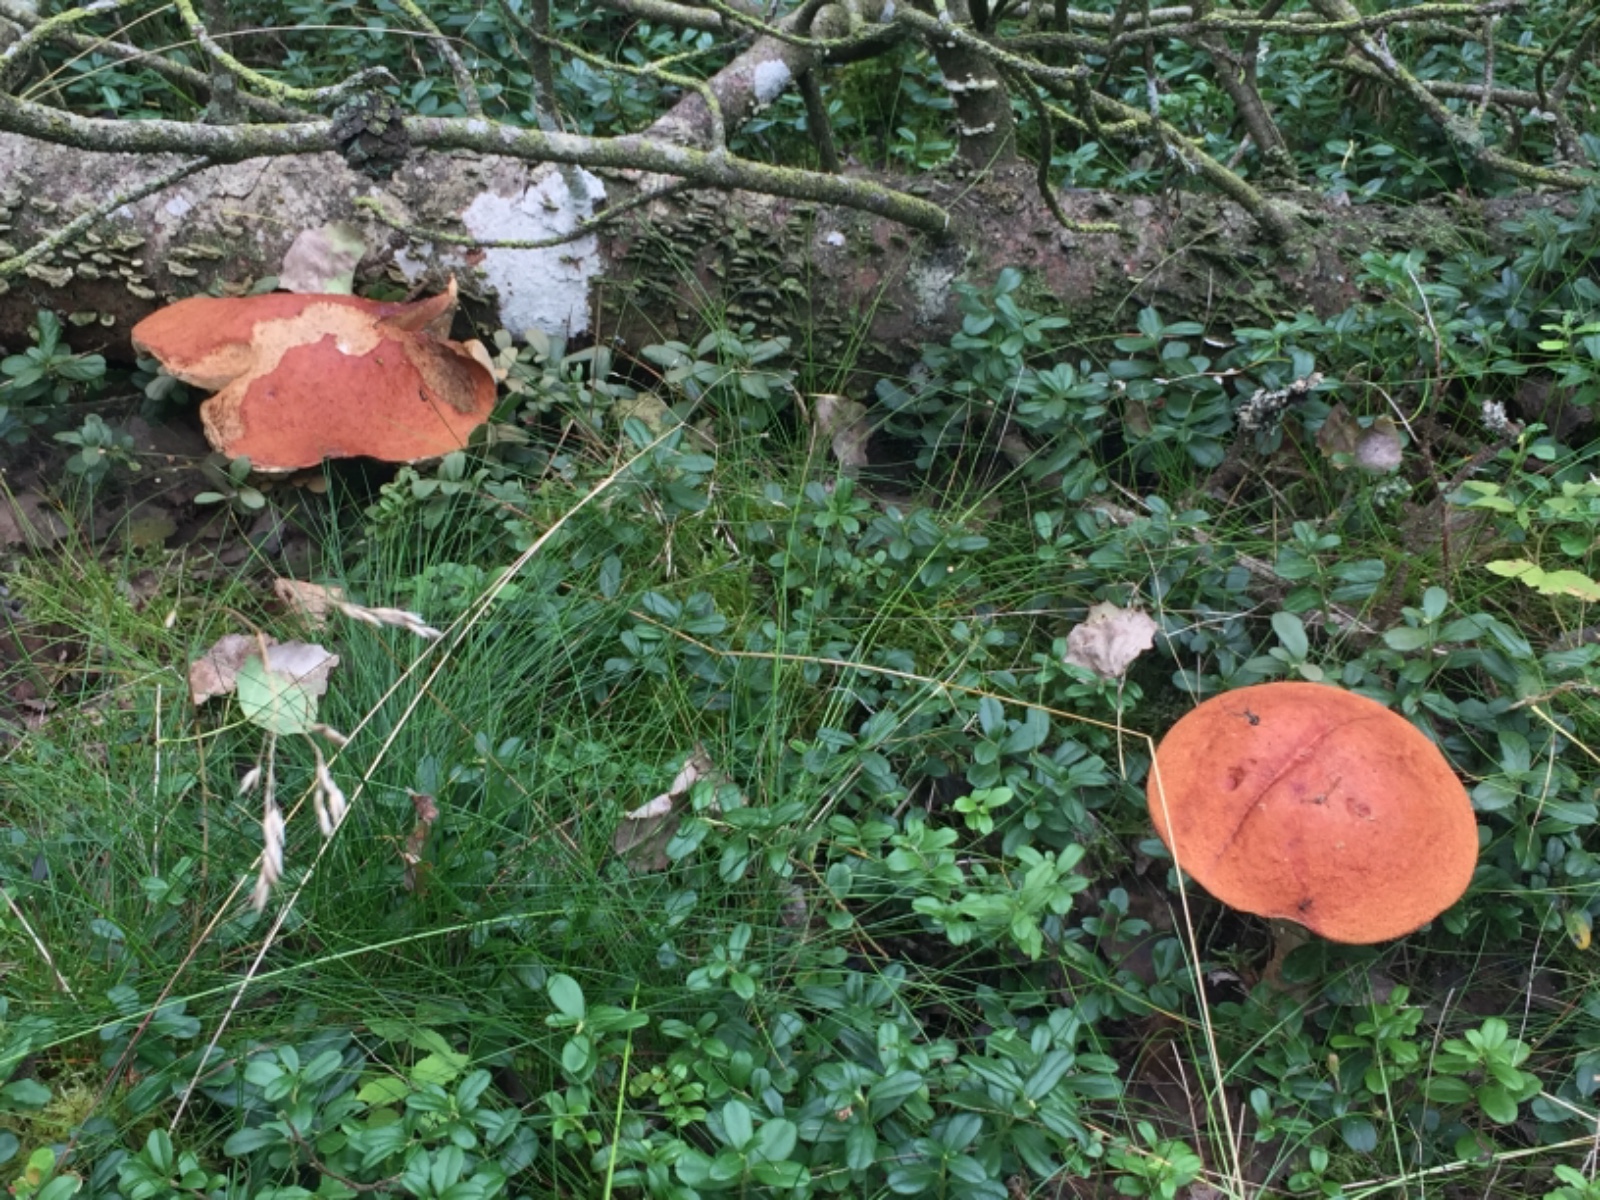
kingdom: Fungi
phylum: Basidiomycota
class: Agaricomycetes
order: Boletales
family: Boletaceae
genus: Leccinum
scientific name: Leccinum albostipitatum
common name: aspe-skælrørhat
